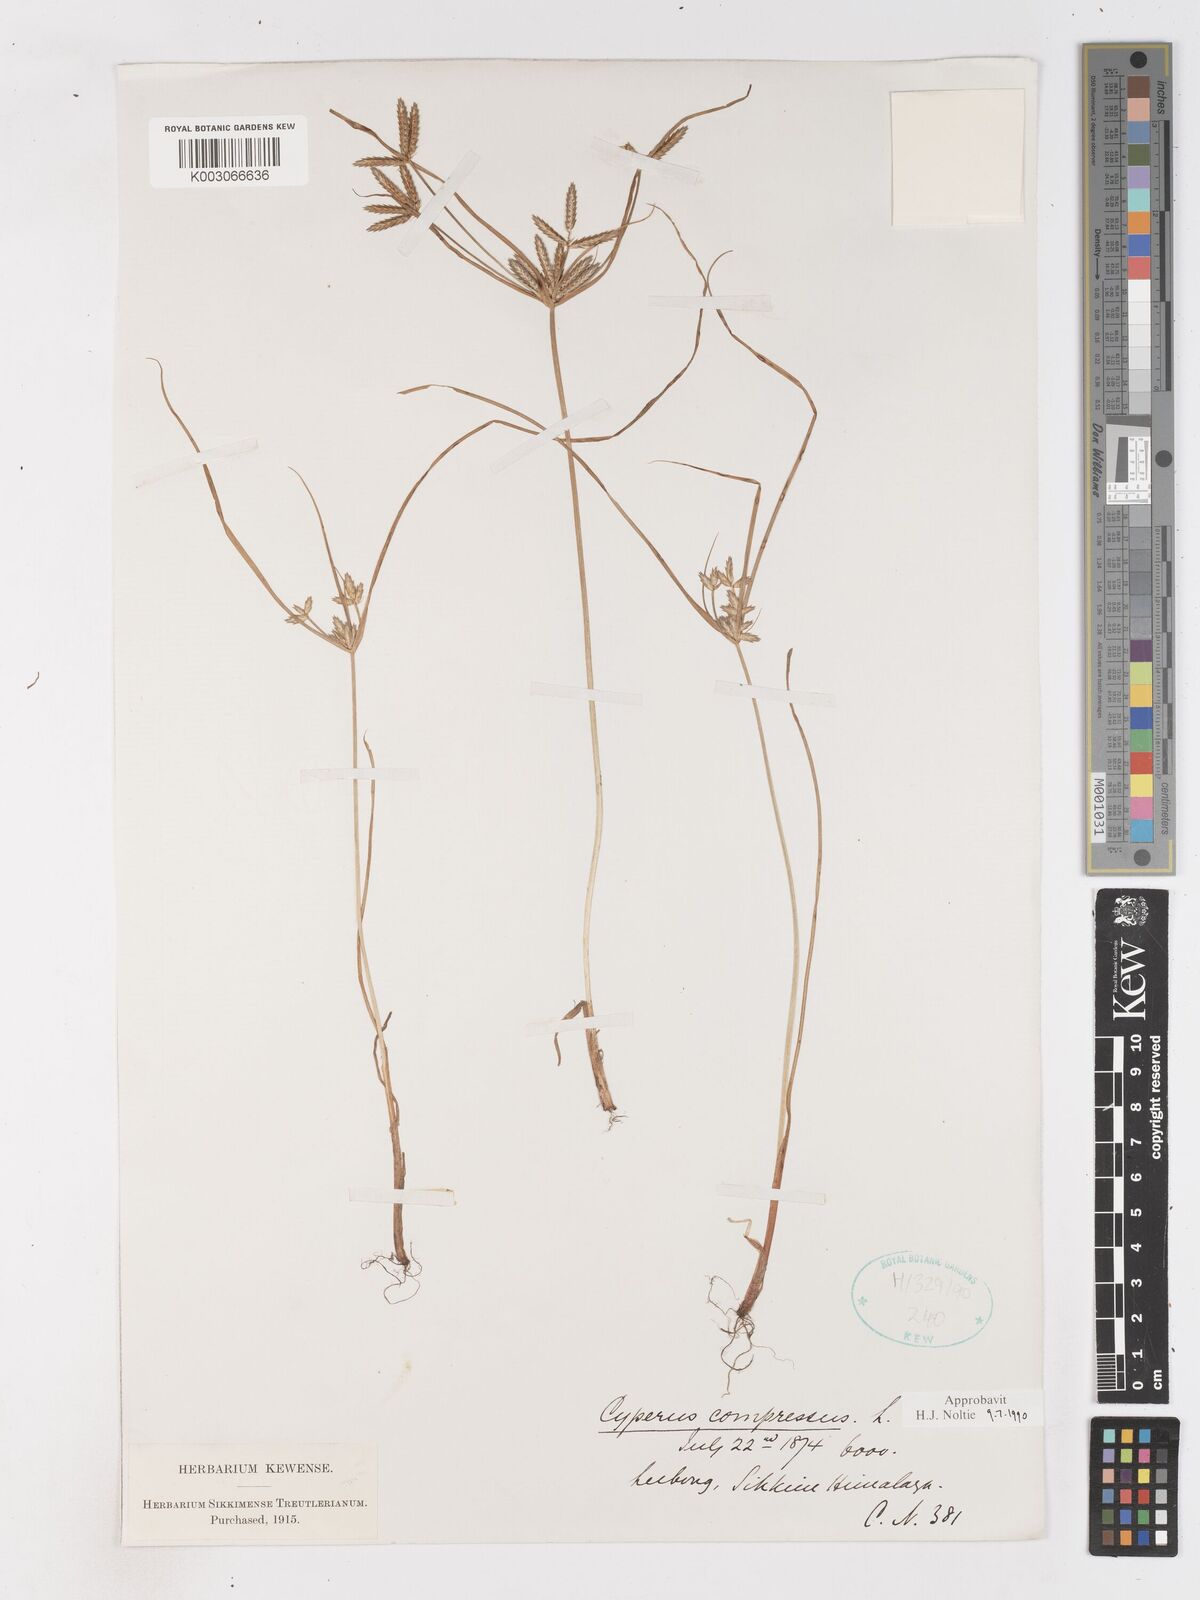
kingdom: Plantae
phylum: Tracheophyta
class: Liliopsida
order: Poales
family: Cyperaceae
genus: Cyperus
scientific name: Cyperus compressus
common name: Poorland flatsedge
